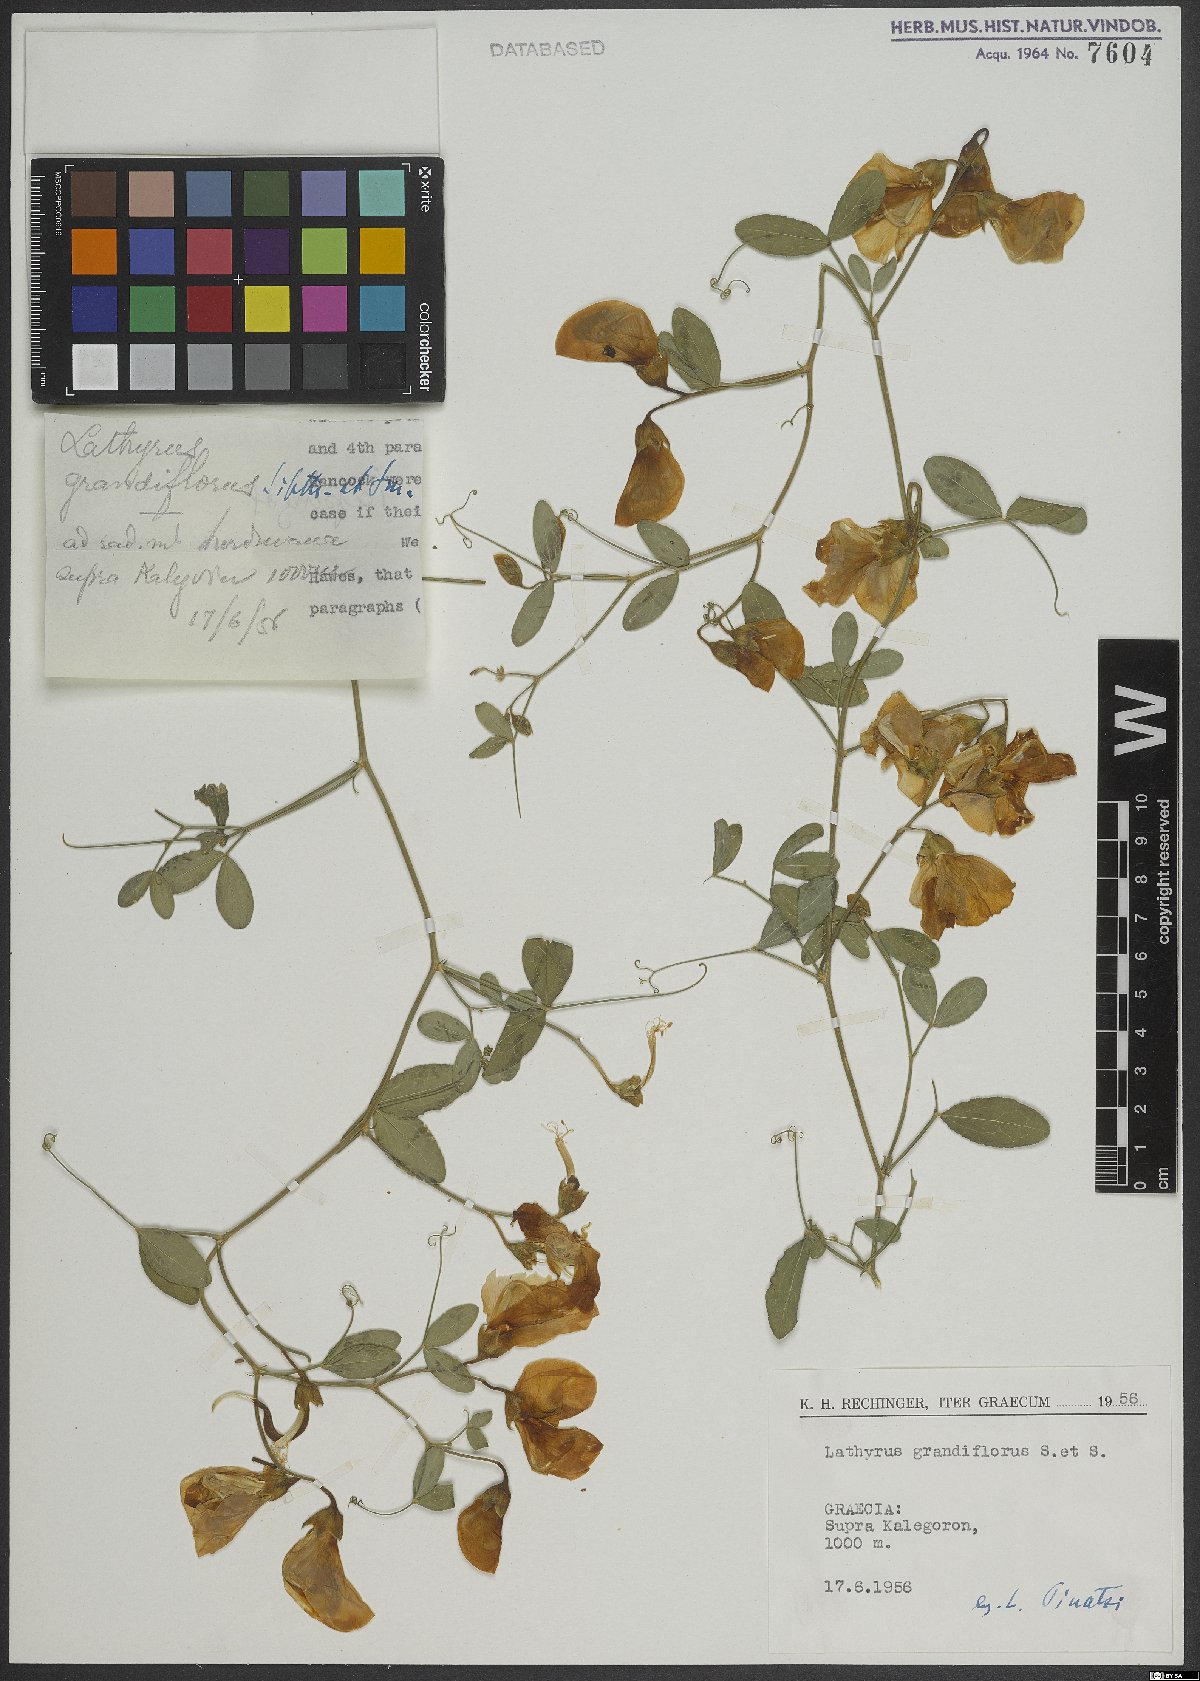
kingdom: Plantae
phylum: Tracheophyta
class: Magnoliopsida
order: Fabales
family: Fabaceae
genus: Lathyrus
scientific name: Lathyrus grandiflorus
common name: Two-flowered everlasting-pea
